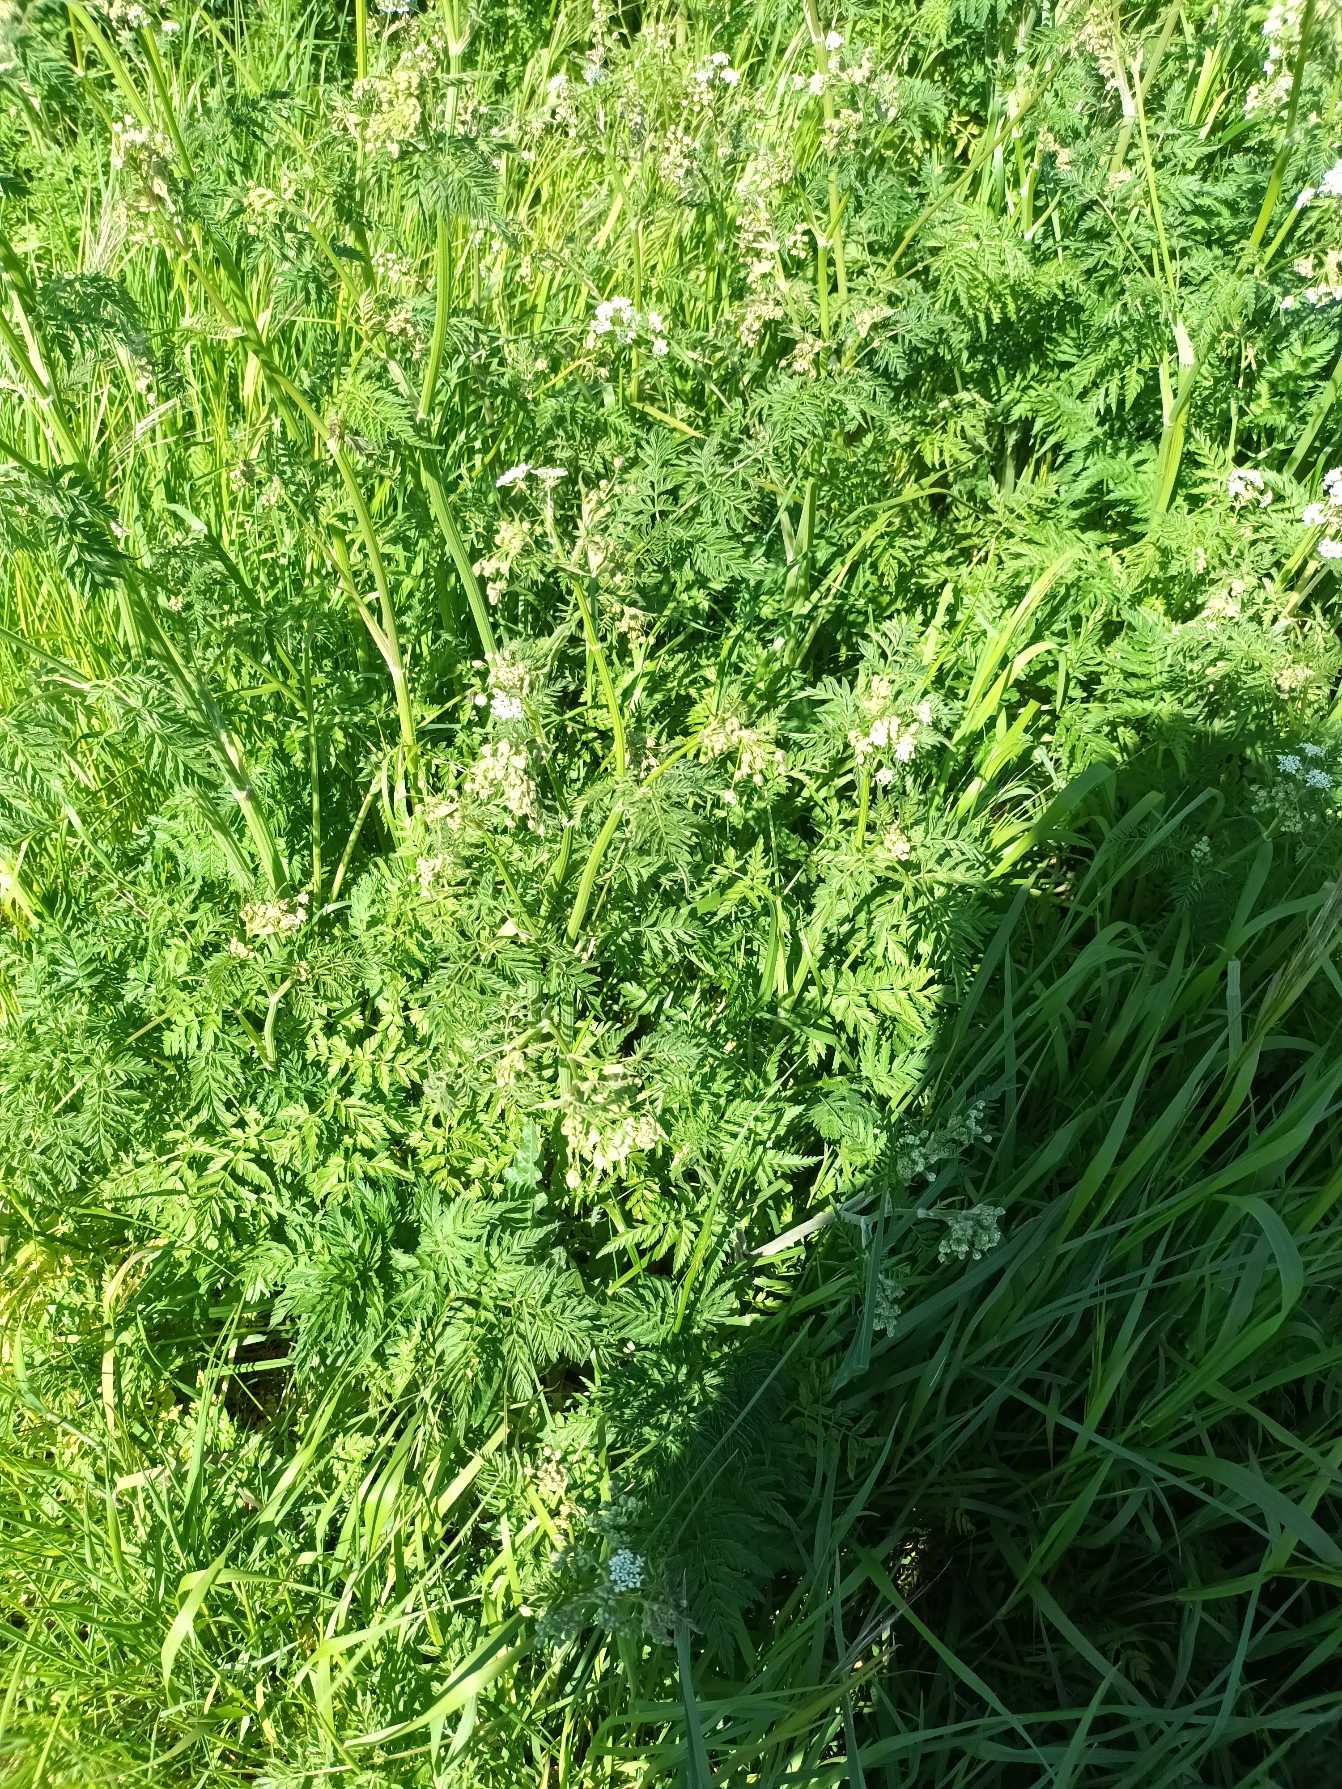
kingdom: Plantae
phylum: Tracheophyta
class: Magnoliopsida
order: Apiales
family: Apiaceae
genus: Anthriscus
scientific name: Anthriscus sylvestris
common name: Vild kørvel
